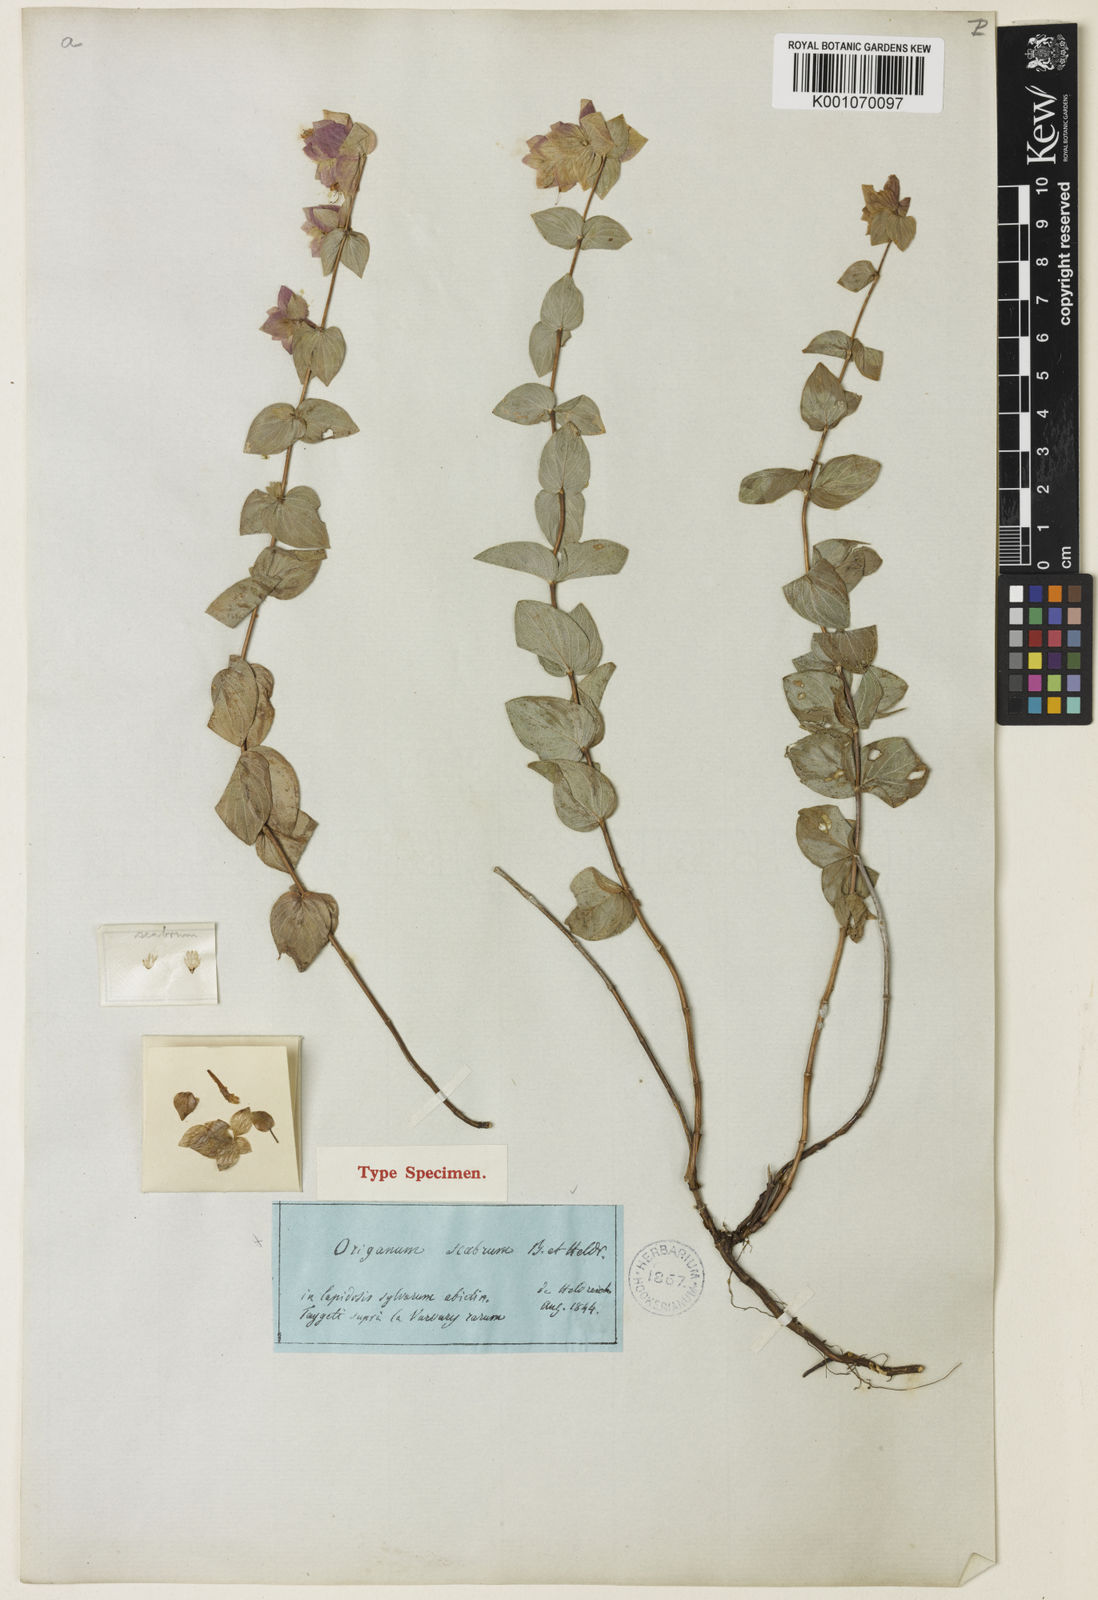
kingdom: Plantae
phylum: Tracheophyta
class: Magnoliopsida
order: Lamiales
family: Lamiaceae
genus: Origanum
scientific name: Origanum scabrum
